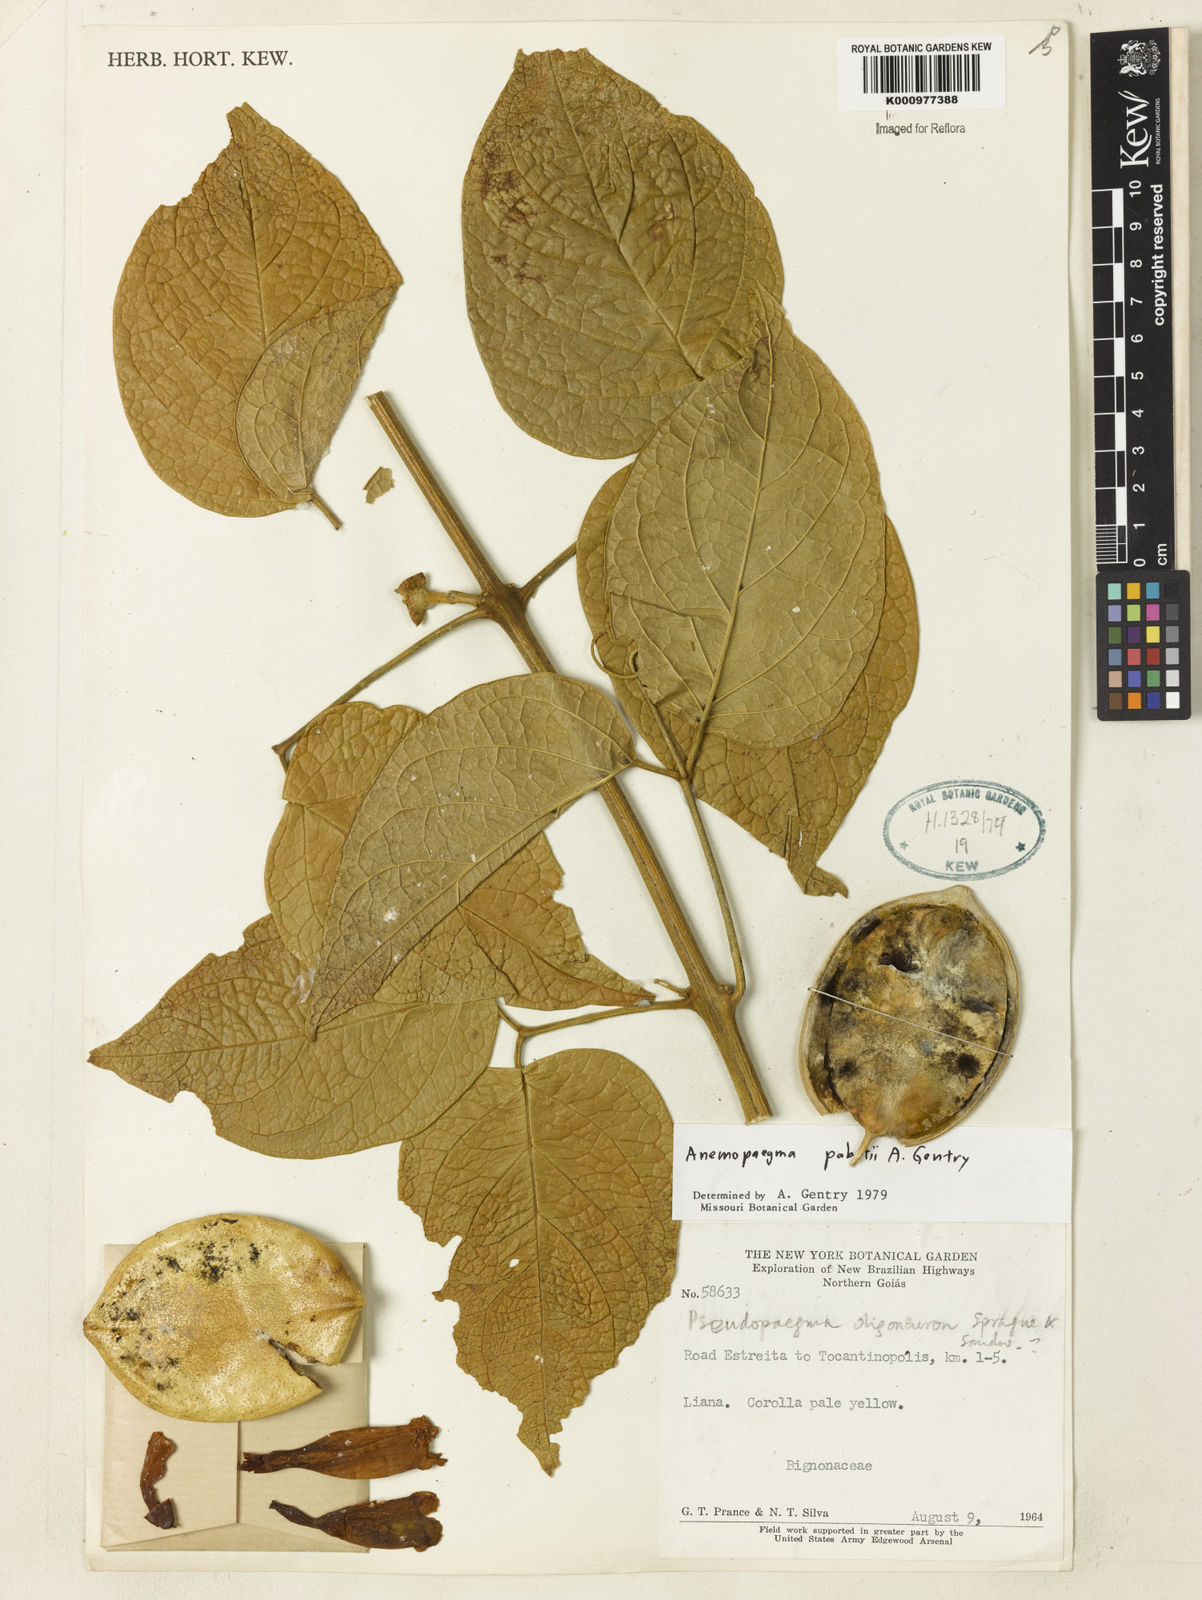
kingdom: Plantae
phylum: Tracheophyta
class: Magnoliopsida
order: Lamiales
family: Bignoniaceae
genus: Anemopaegma
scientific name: Anemopaegma pabstii
